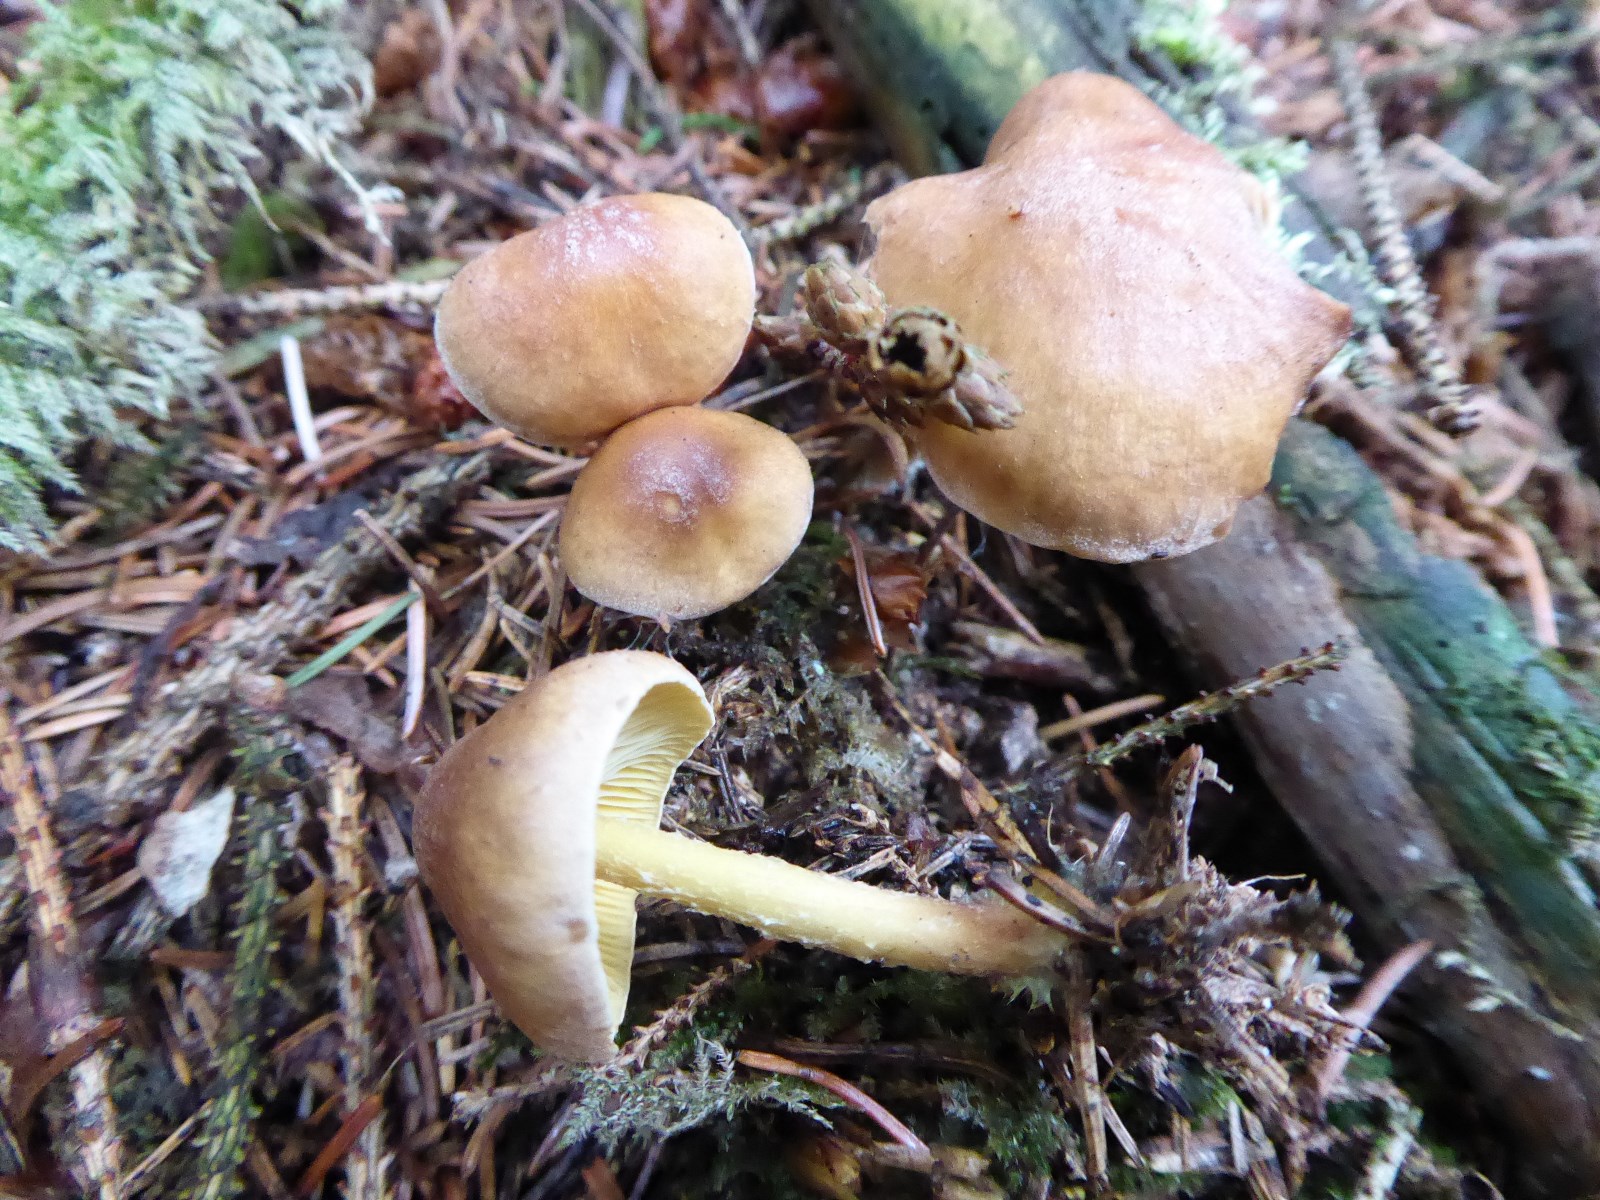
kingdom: Fungi
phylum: Basidiomycota
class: Agaricomycetes
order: Agaricales
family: Omphalotaceae
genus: Collybiopsis
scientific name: Collybiopsis peronata
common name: bestøvlet fladhat
